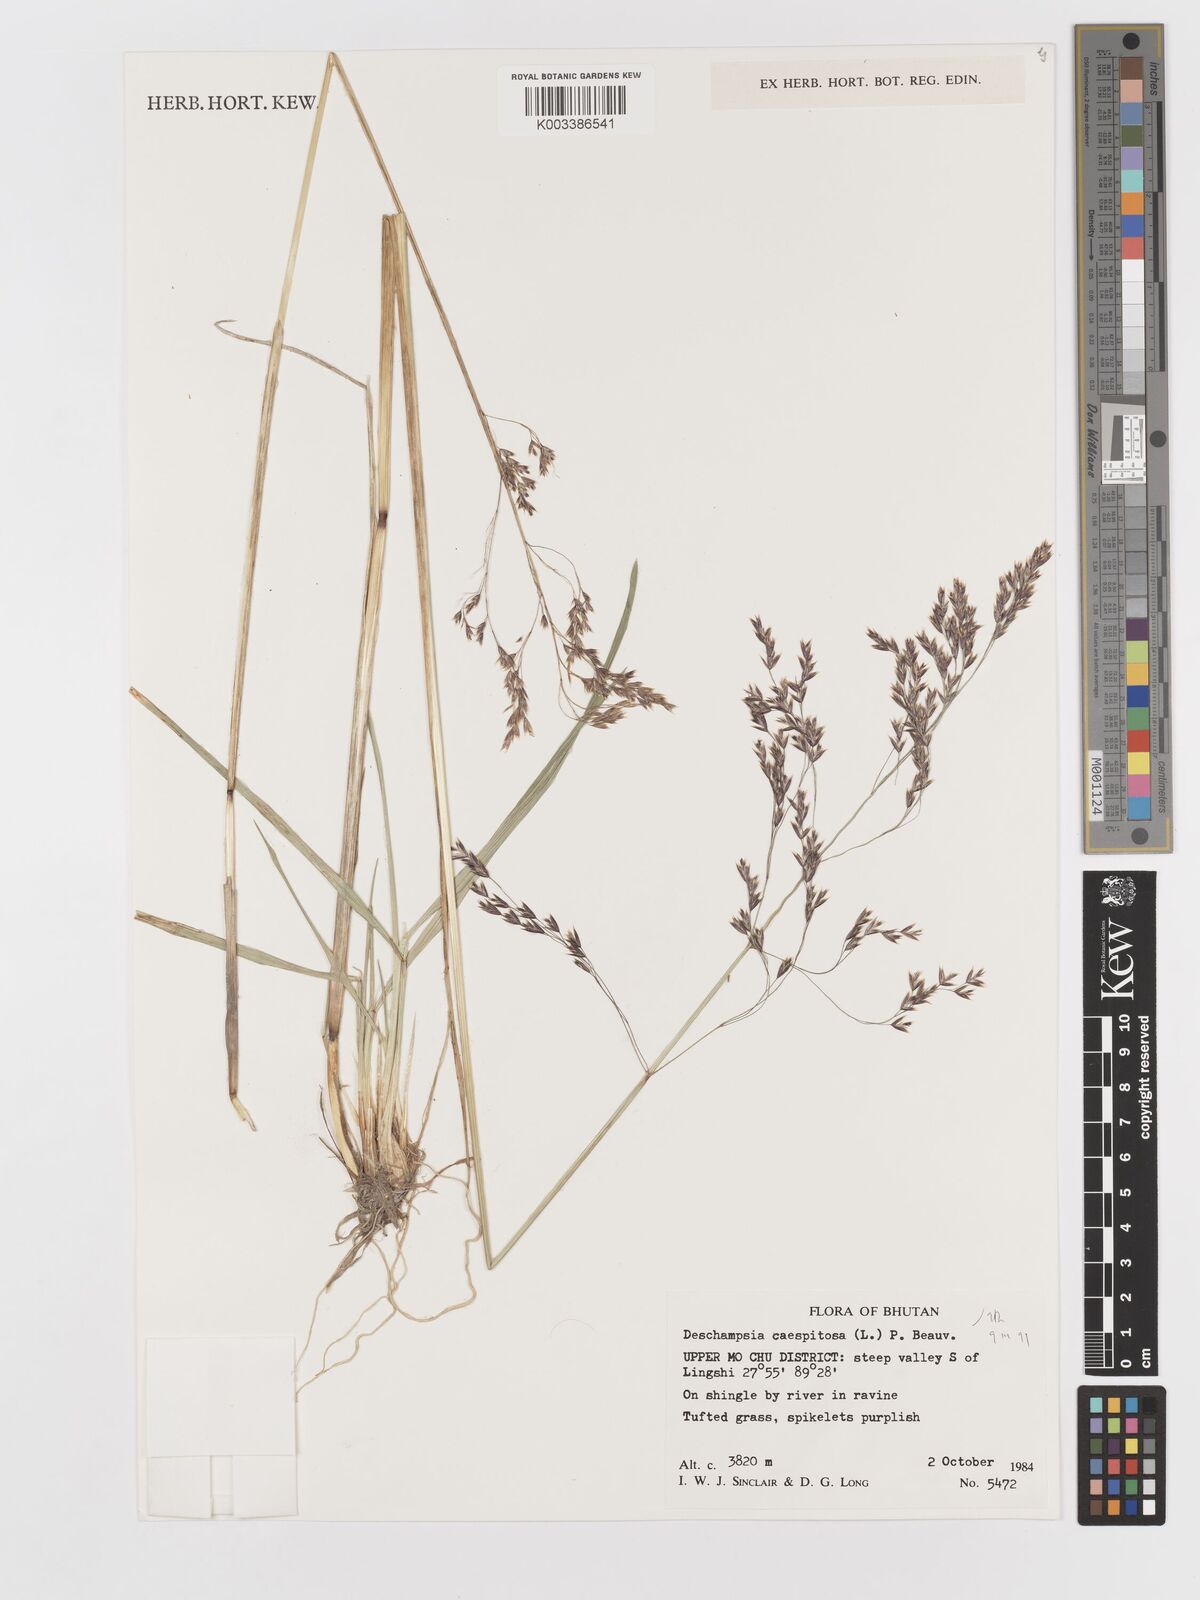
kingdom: Plantae
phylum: Tracheophyta
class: Liliopsida
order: Poales
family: Poaceae
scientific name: Poaceae
